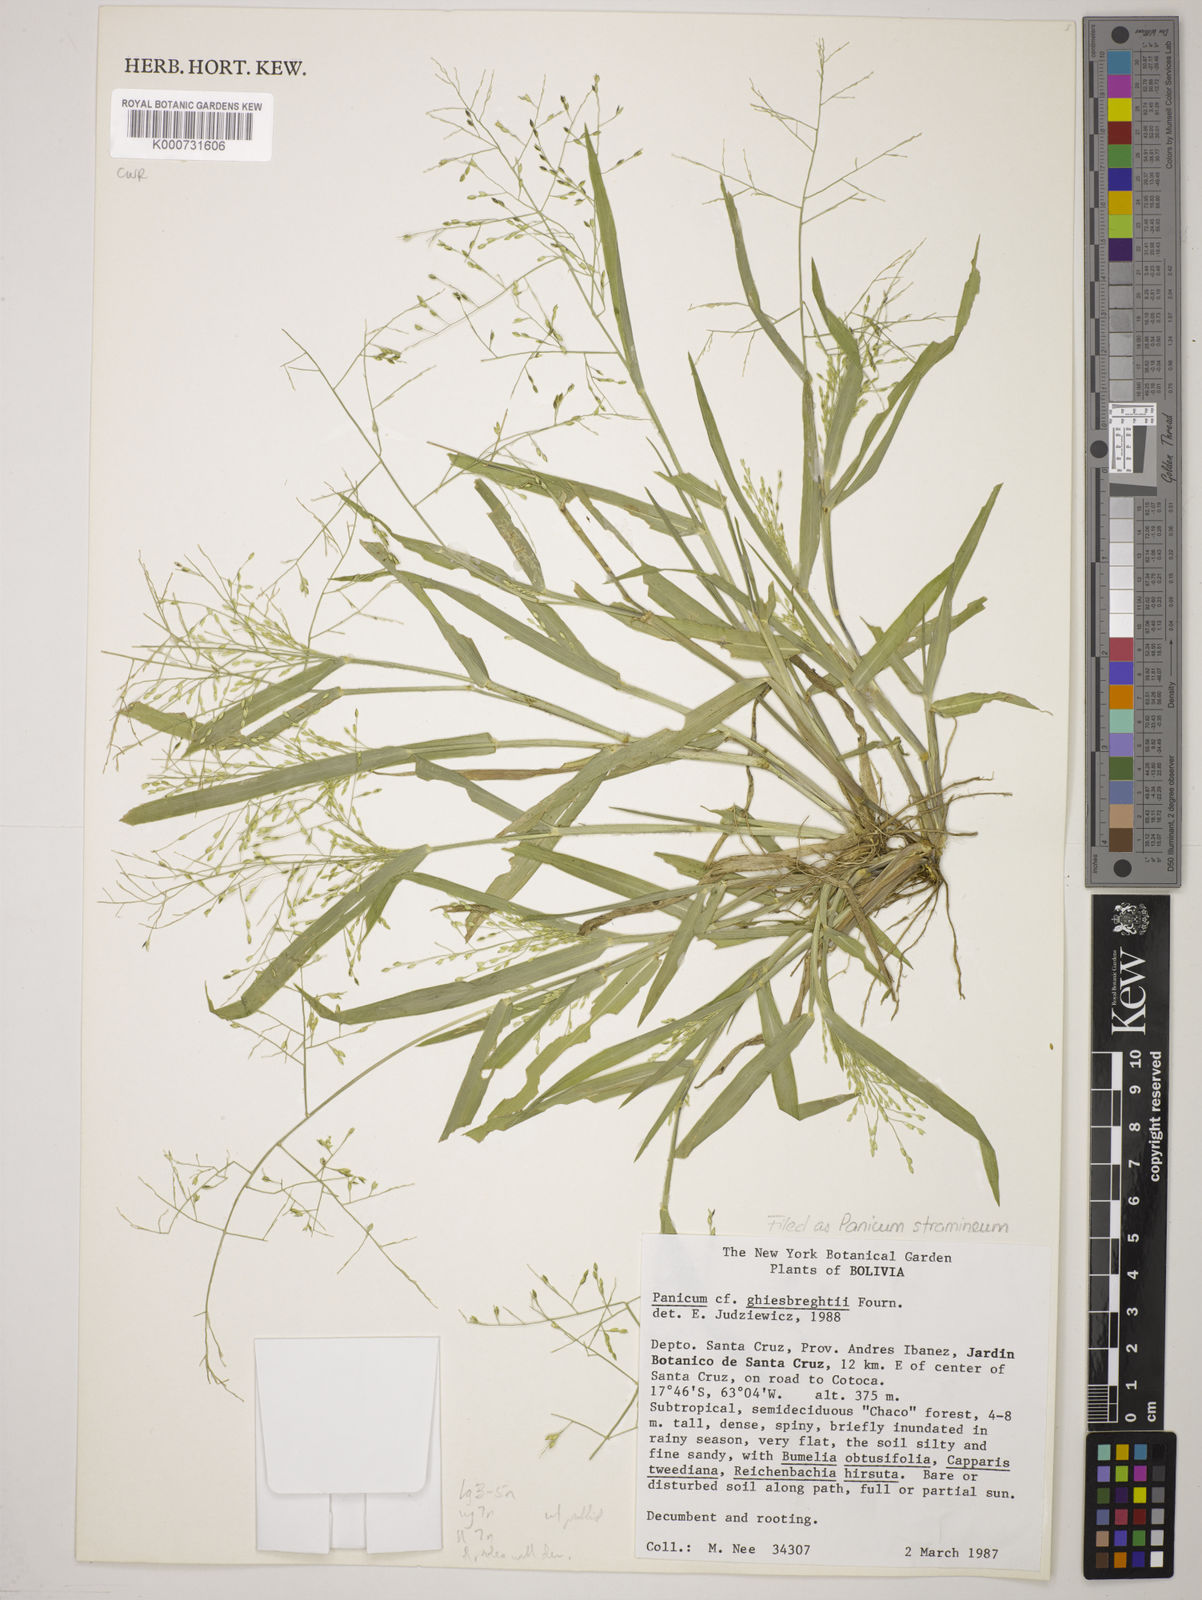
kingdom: Plantae
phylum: Tracheophyta
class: Liliopsida
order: Poales
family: Poaceae
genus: Panicum
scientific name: Panicum ghiesbreghtii
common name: Ghiesbreght's witchgrass
